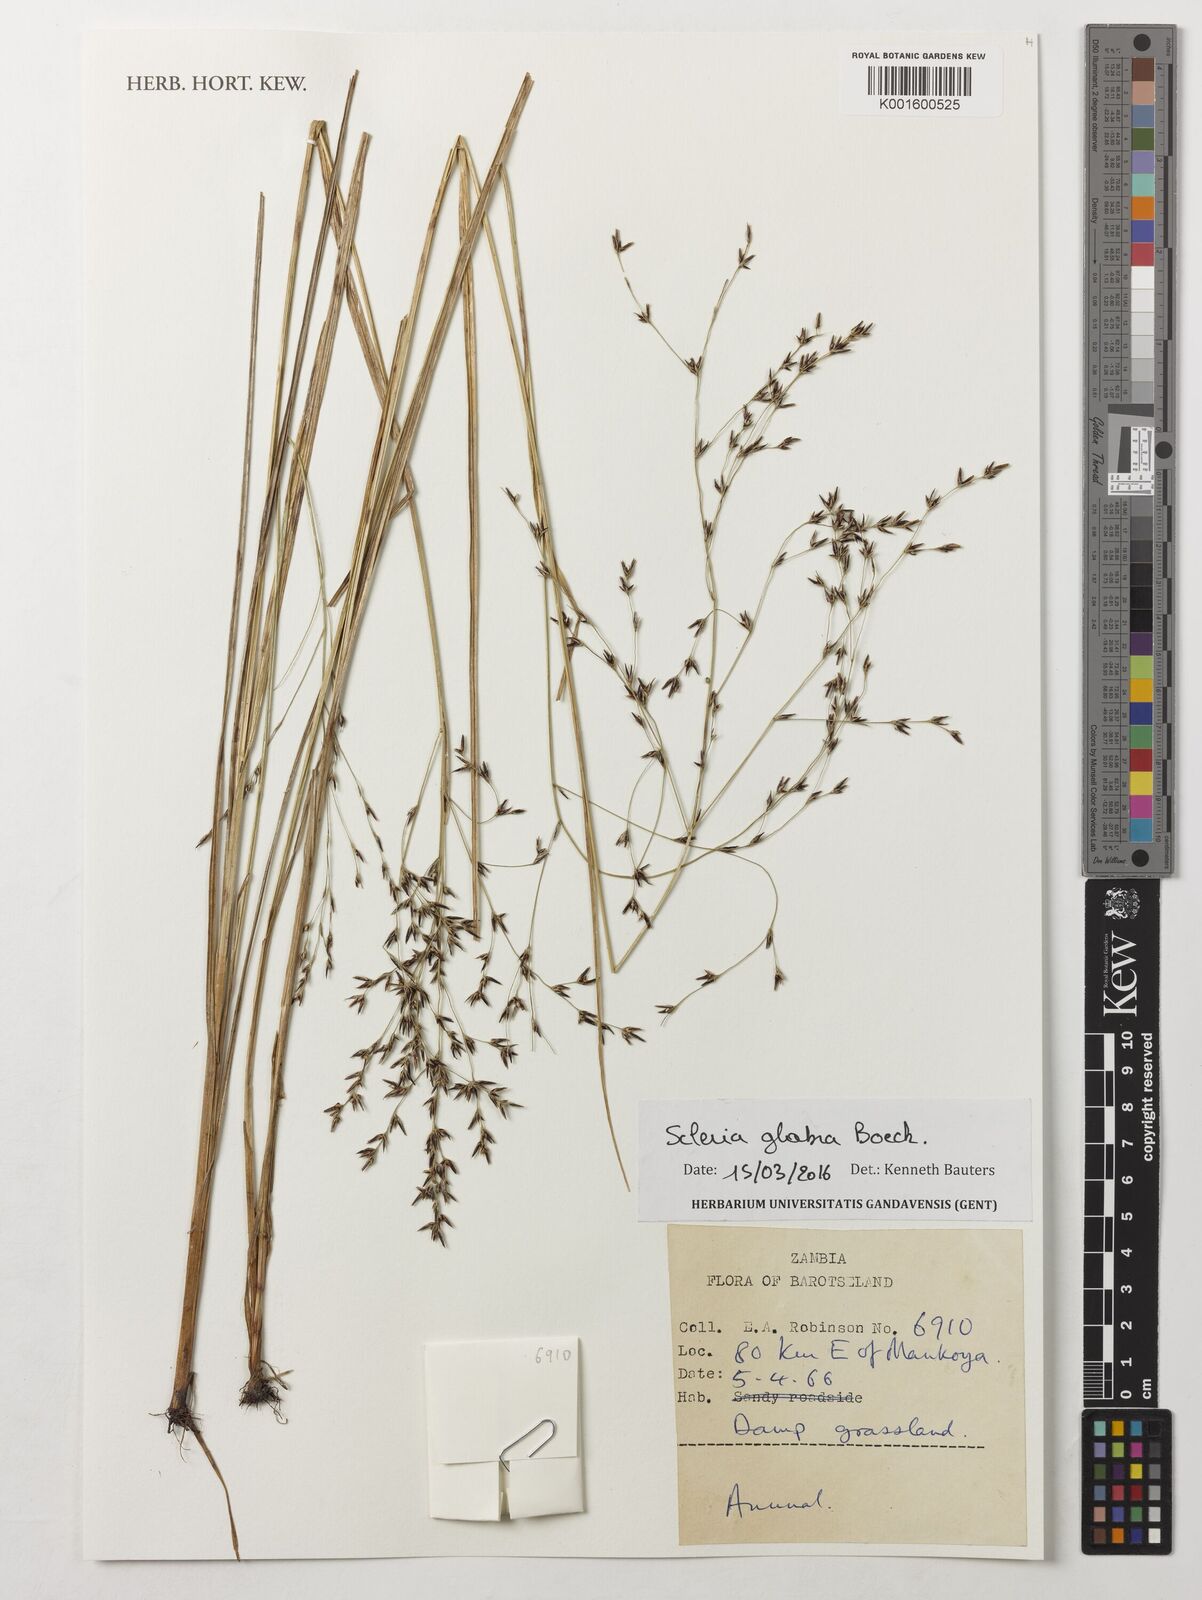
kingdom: Plantae
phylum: Tracheophyta
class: Liliopsida
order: Poales
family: Cyperaceae
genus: Scleria
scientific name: Scleria glabra
